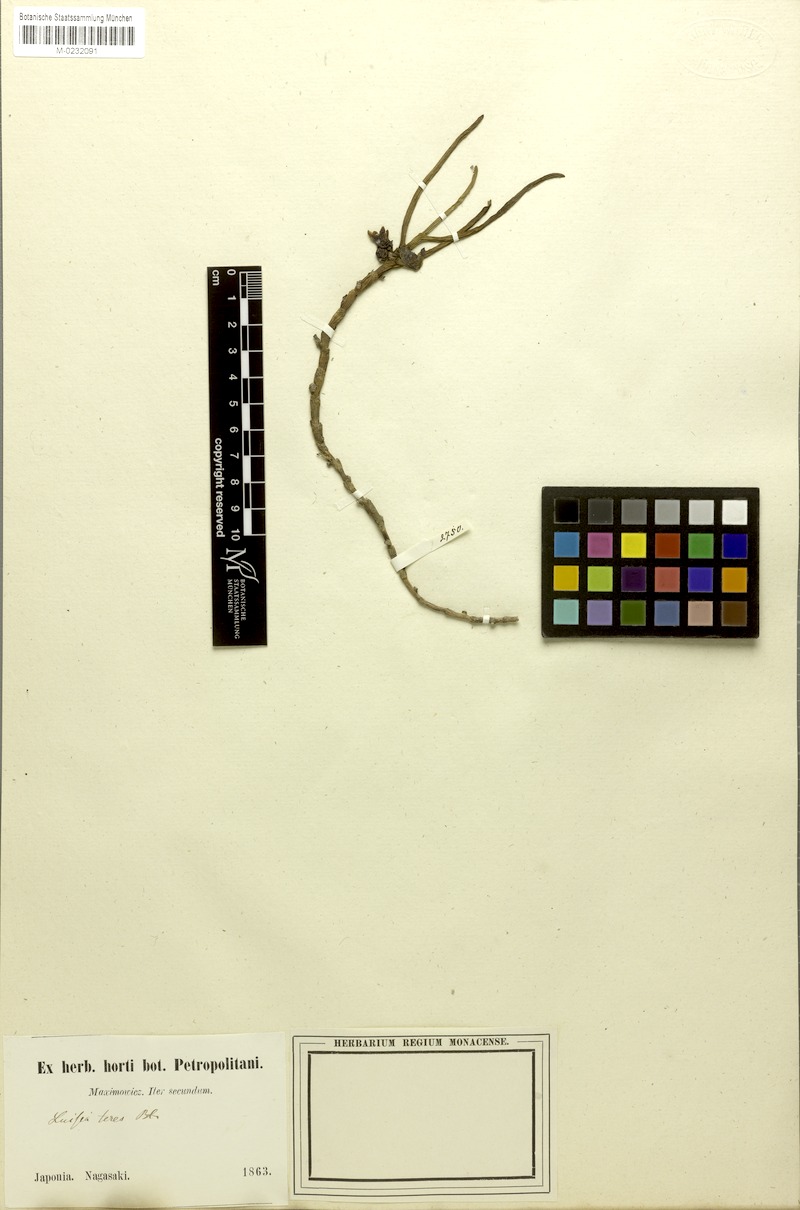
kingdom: Plantae
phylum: Tracheophyta
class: Liliopsida
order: Asparagales
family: Orchidaceae
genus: Luisia
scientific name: Luisia teres
